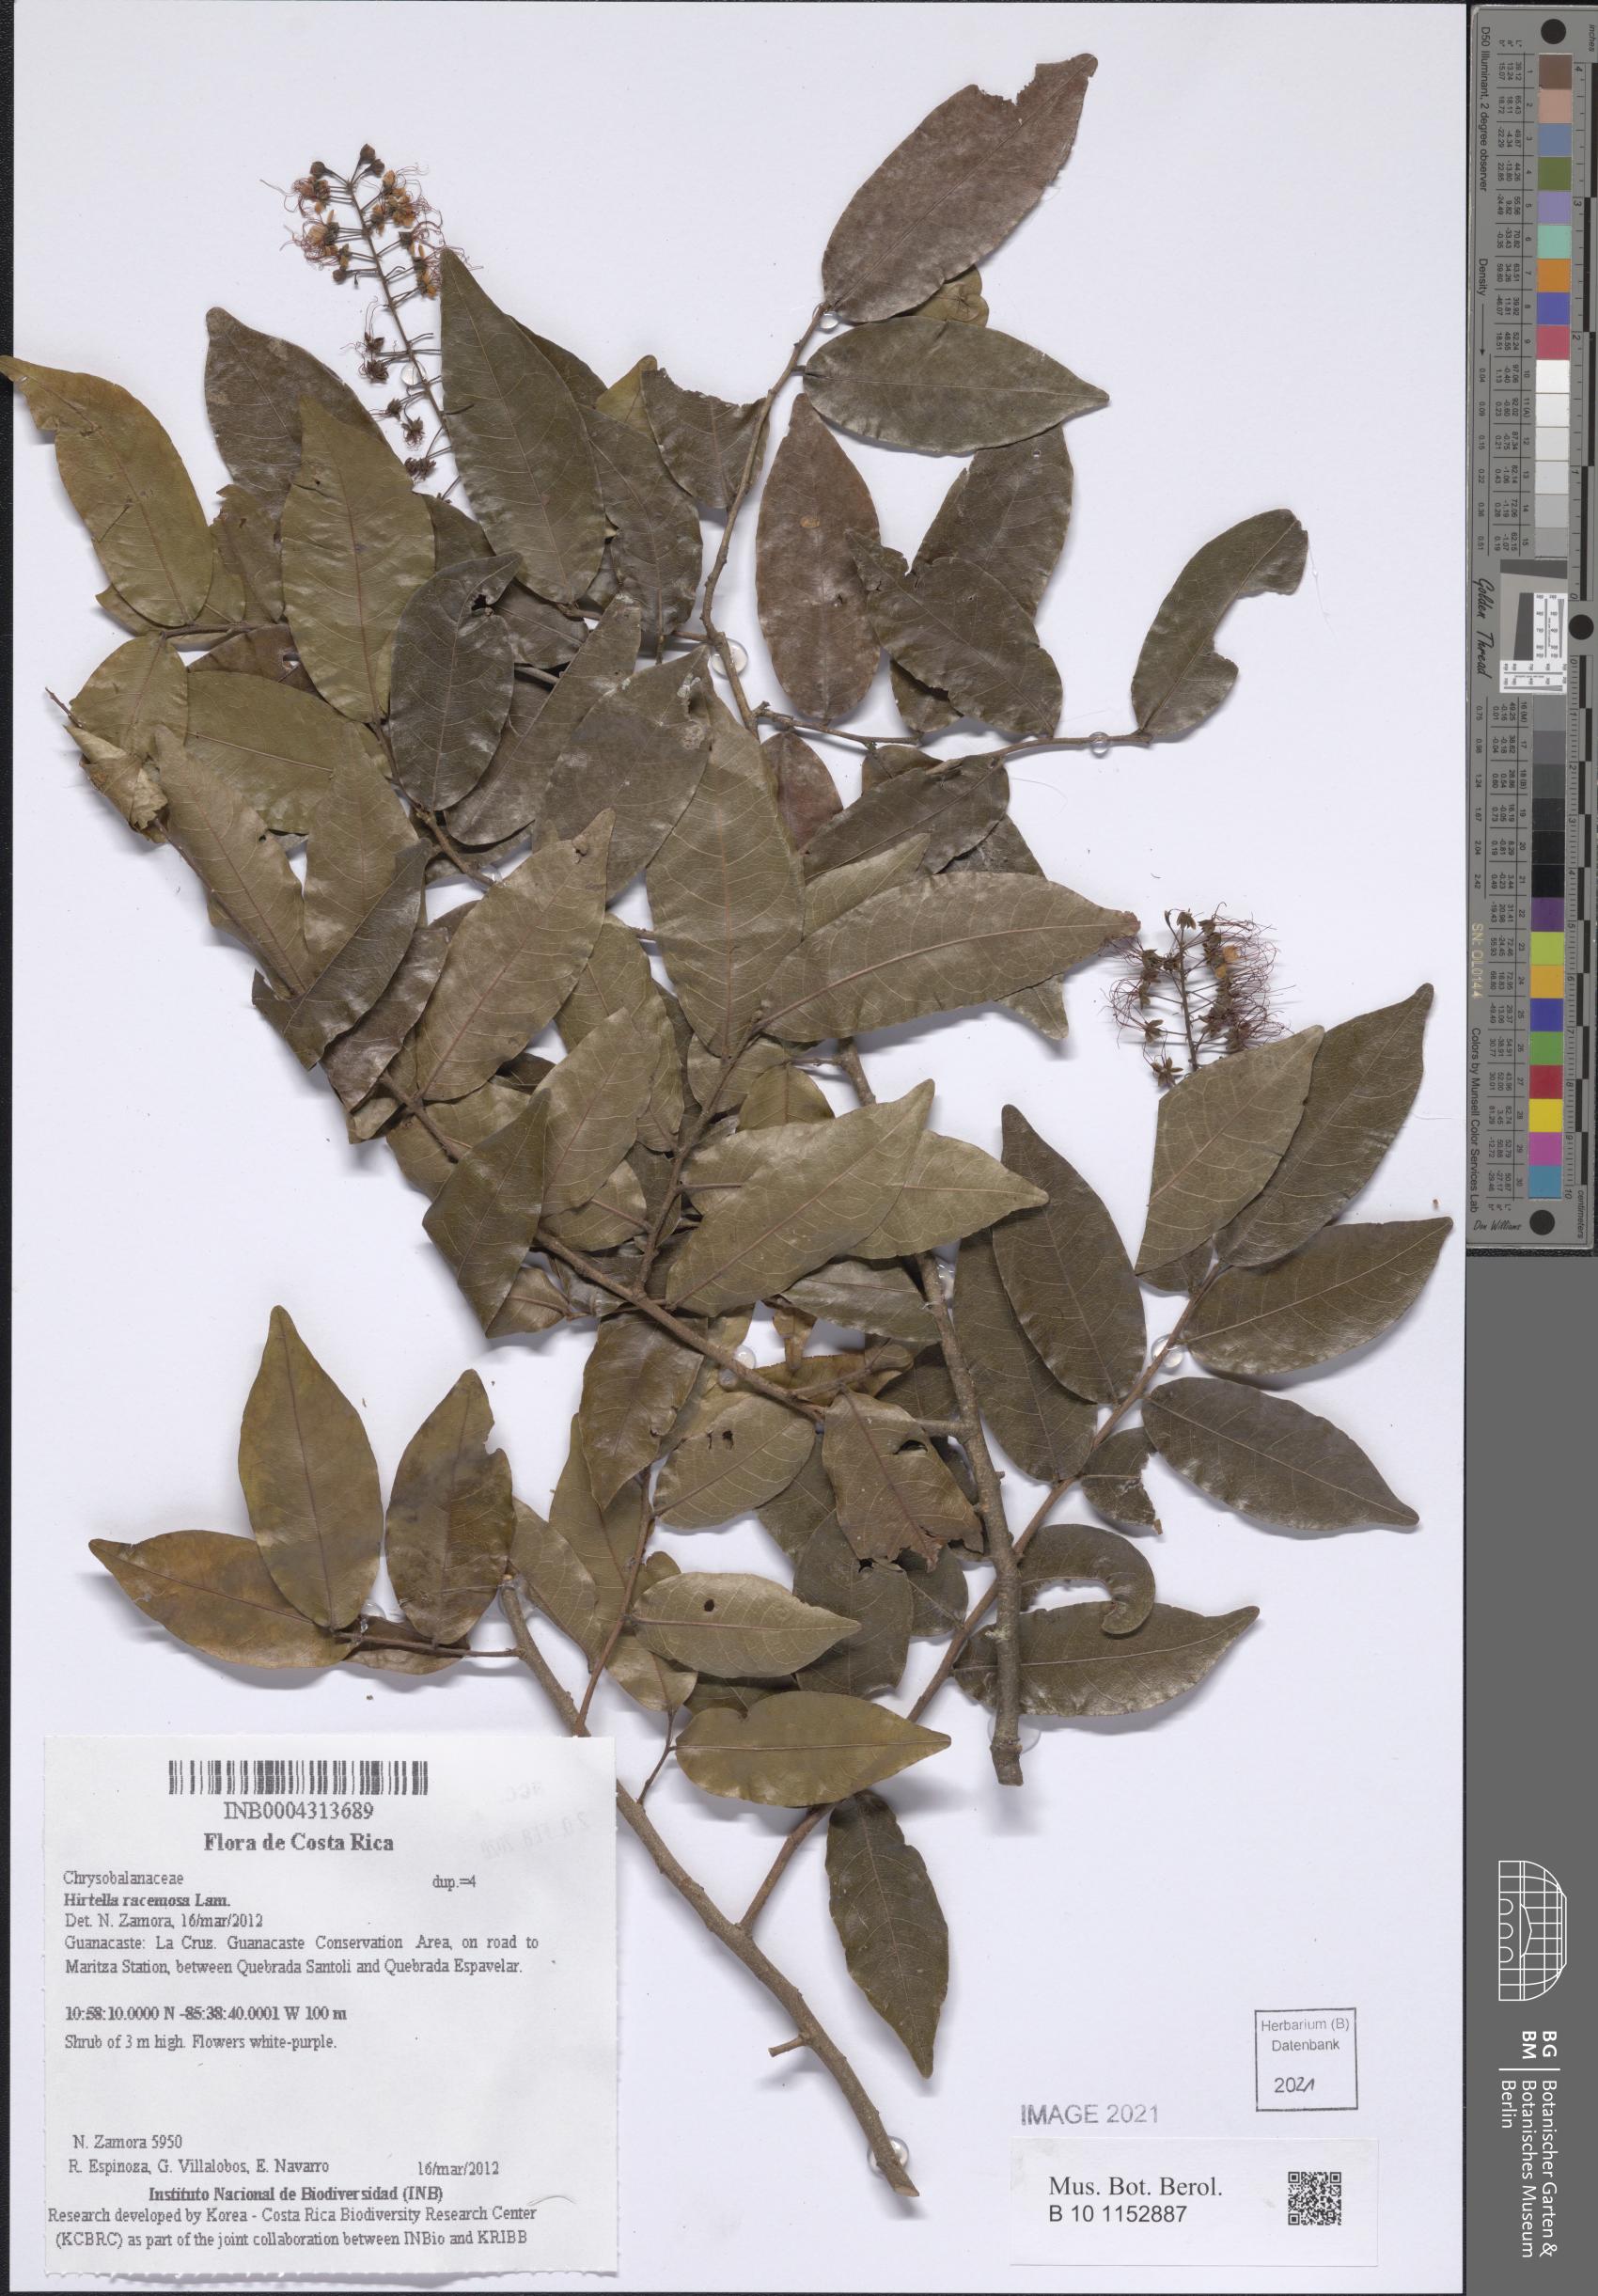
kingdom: Plantae
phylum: Tracheophyta
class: Magnoliopsida
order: Malpighiales
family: Chrysobalanaceae
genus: Hirtella
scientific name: Hirtella racemosa
